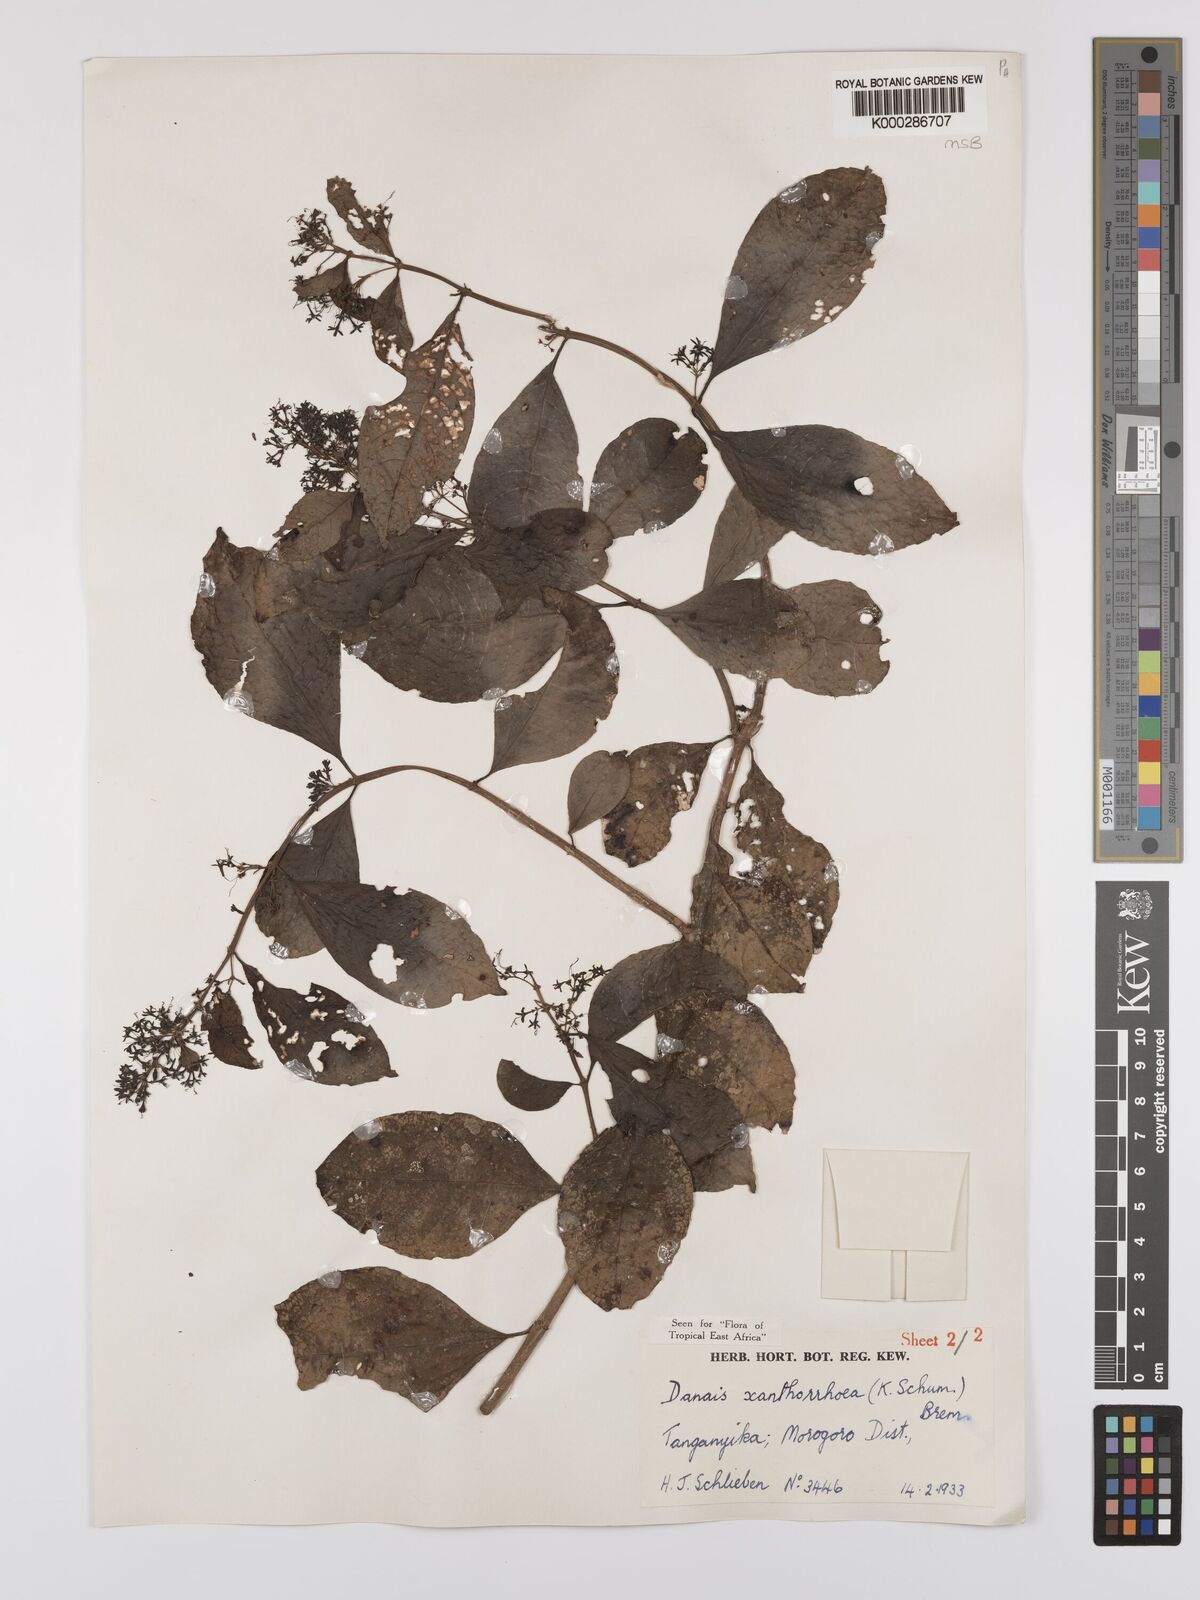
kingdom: Plantae
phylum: Tracheophyta
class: Magnoliopsida
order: Gentianales
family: Rubiaceae
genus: Danais
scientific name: Danais xanthorrhoea
